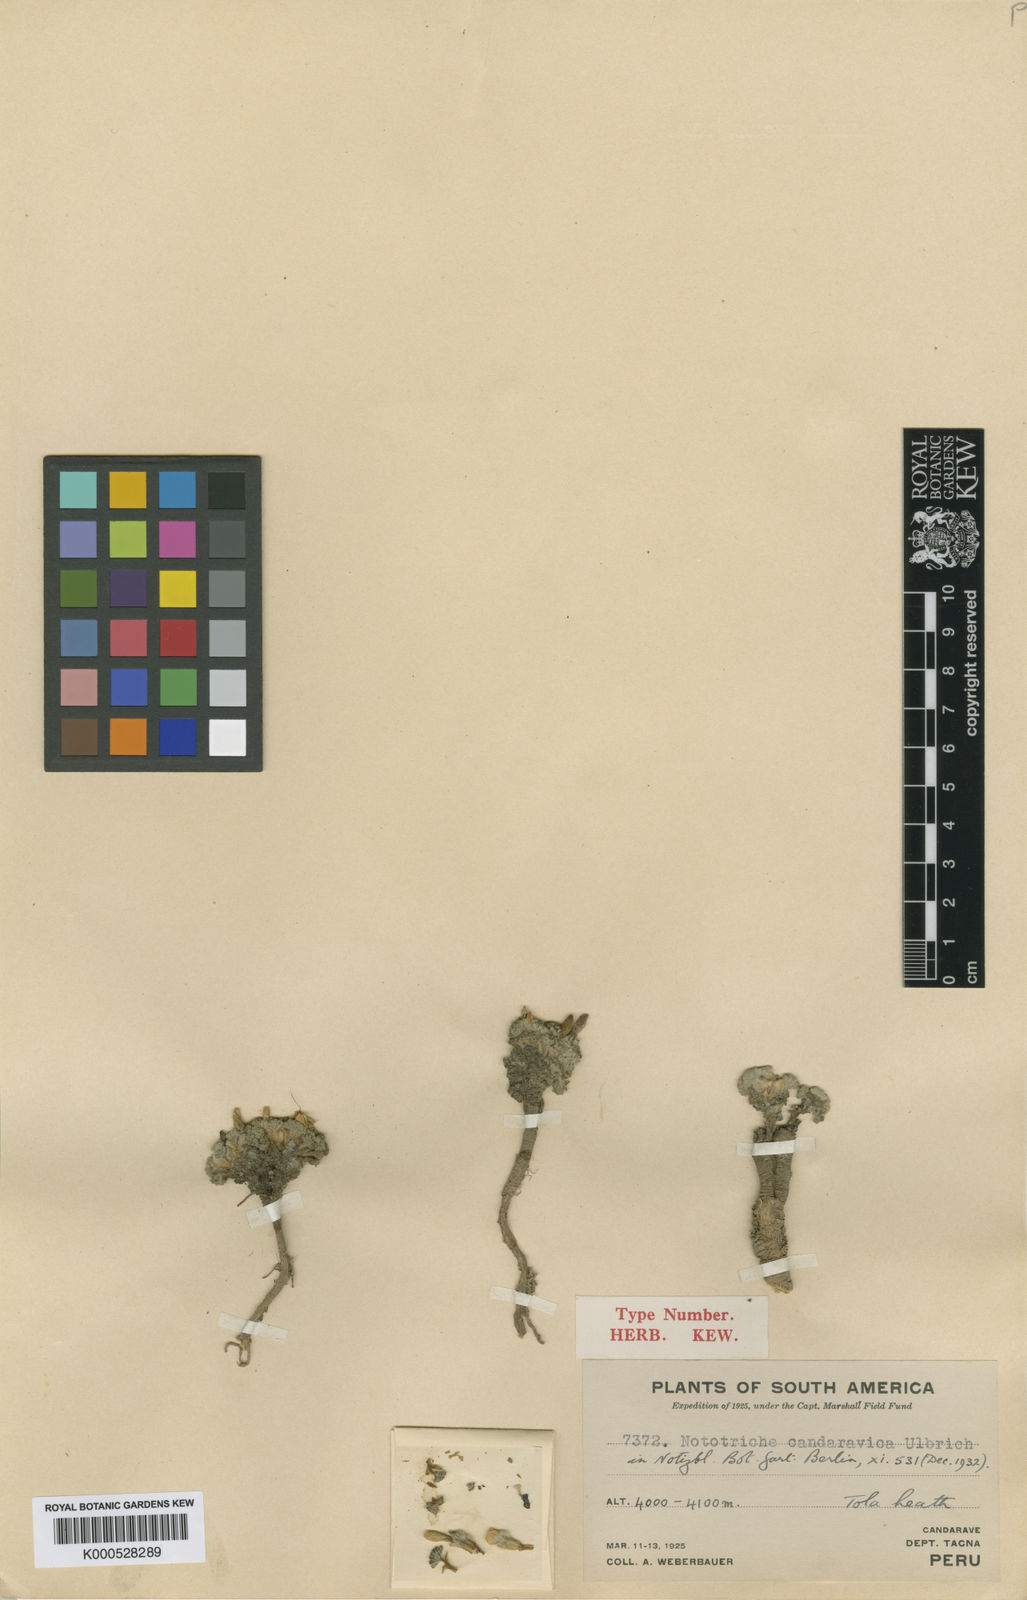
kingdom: Plantae
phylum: Tracheophyta
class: Magnoliopsida
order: Malvales
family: Malvaceae
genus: Nototriche
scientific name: Nototriche turritella
